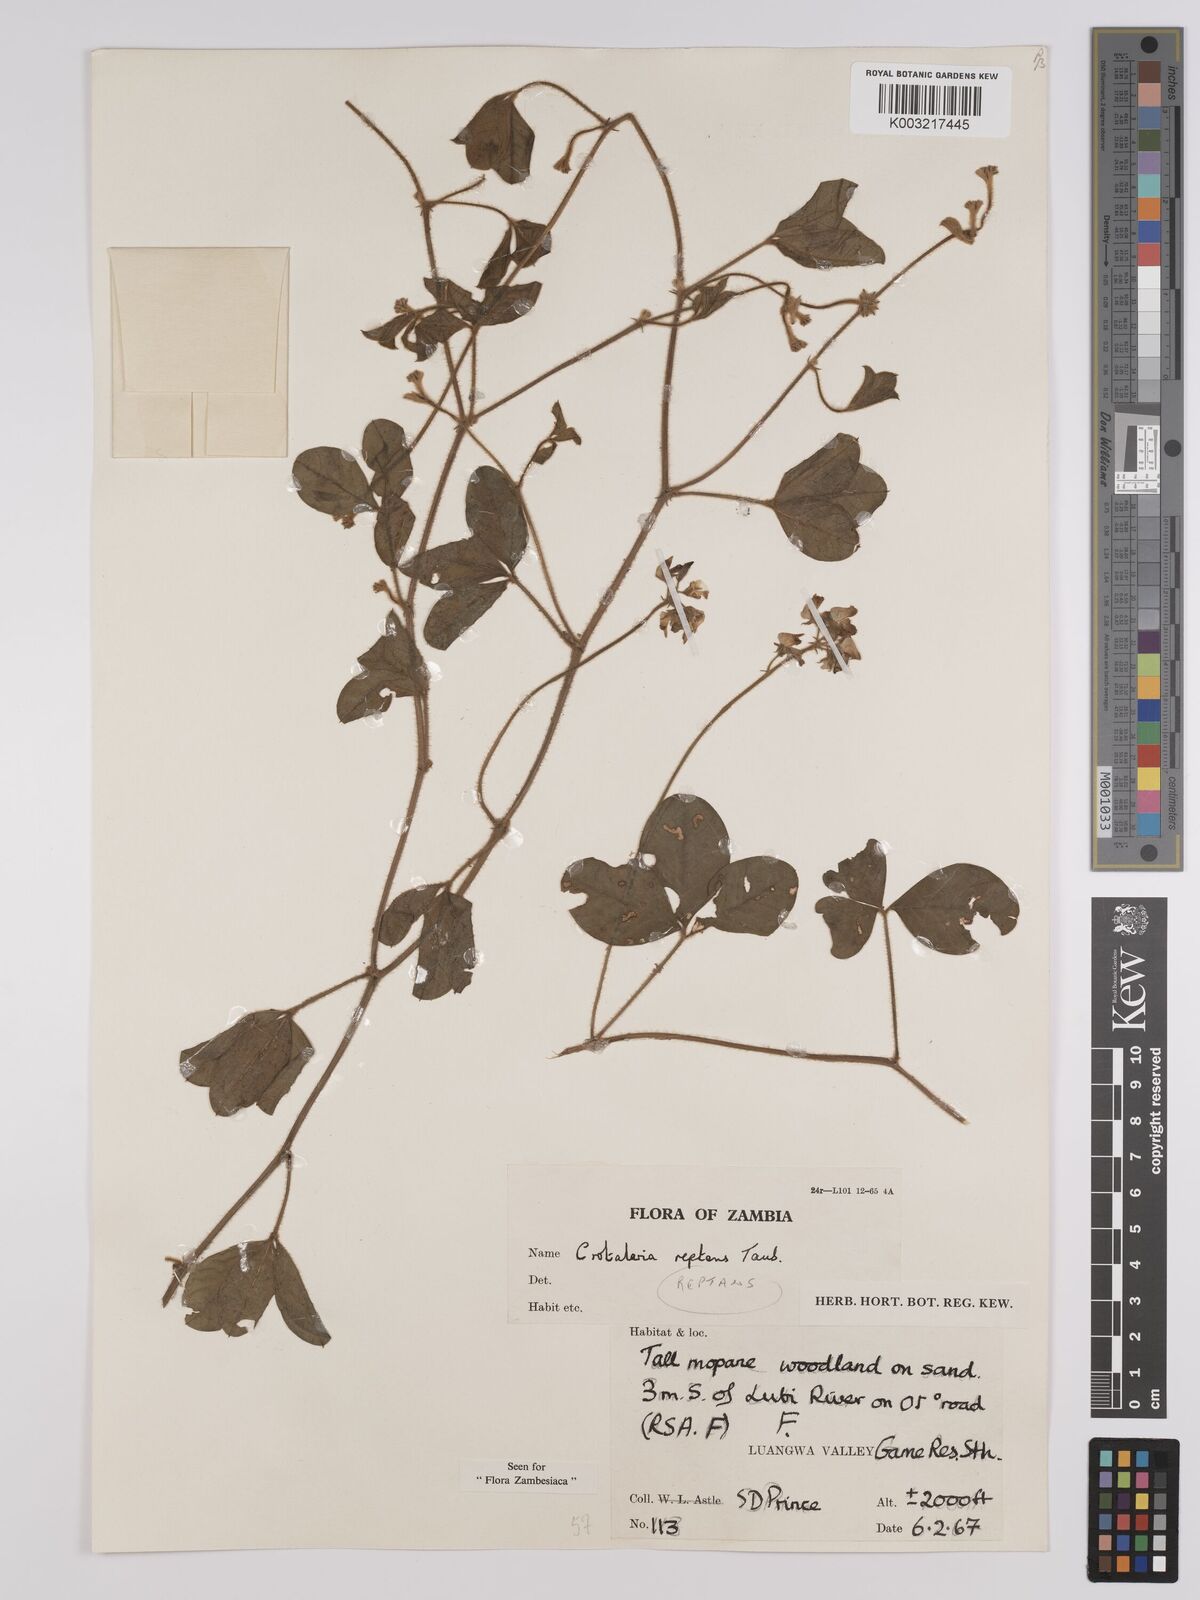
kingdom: Plantae
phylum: Tracheophyta
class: Magnoliopsida
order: Fabales
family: Fabaceae
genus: Crotalaria
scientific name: Crotalaria reptans
